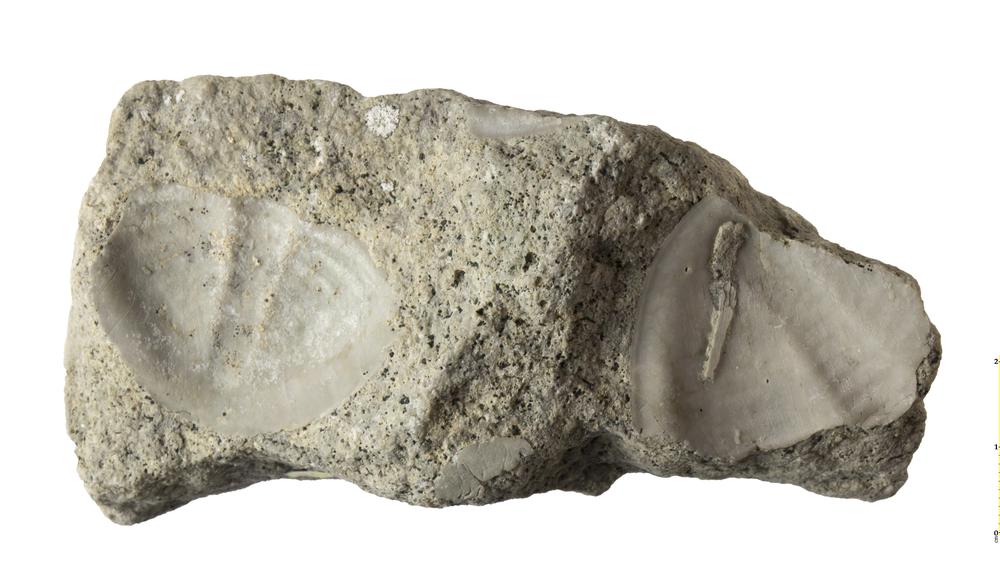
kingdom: Animalia
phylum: Arthropoda
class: Trilobita
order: Asaphida
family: Asaphidae
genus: Megistaspis
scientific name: Megistaspis planilimbata
